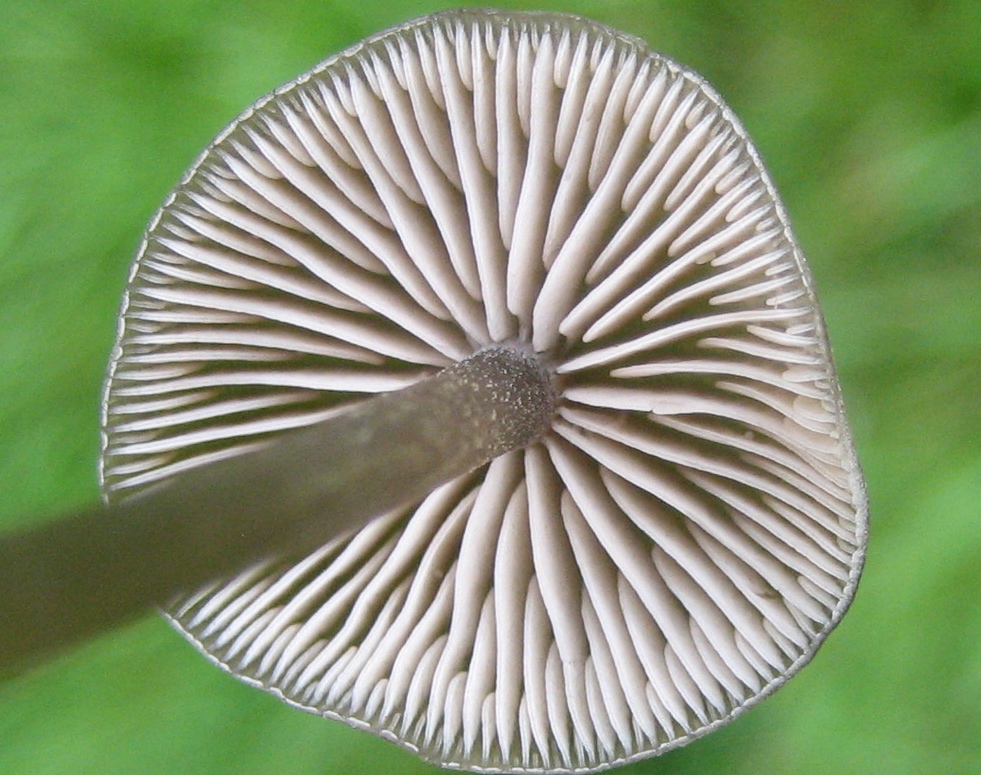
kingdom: Fungi
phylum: Basidiomycota
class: Agaricomycetes
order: Agaricales
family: Entolomataceae
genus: Entoloma
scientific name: Entoloma
